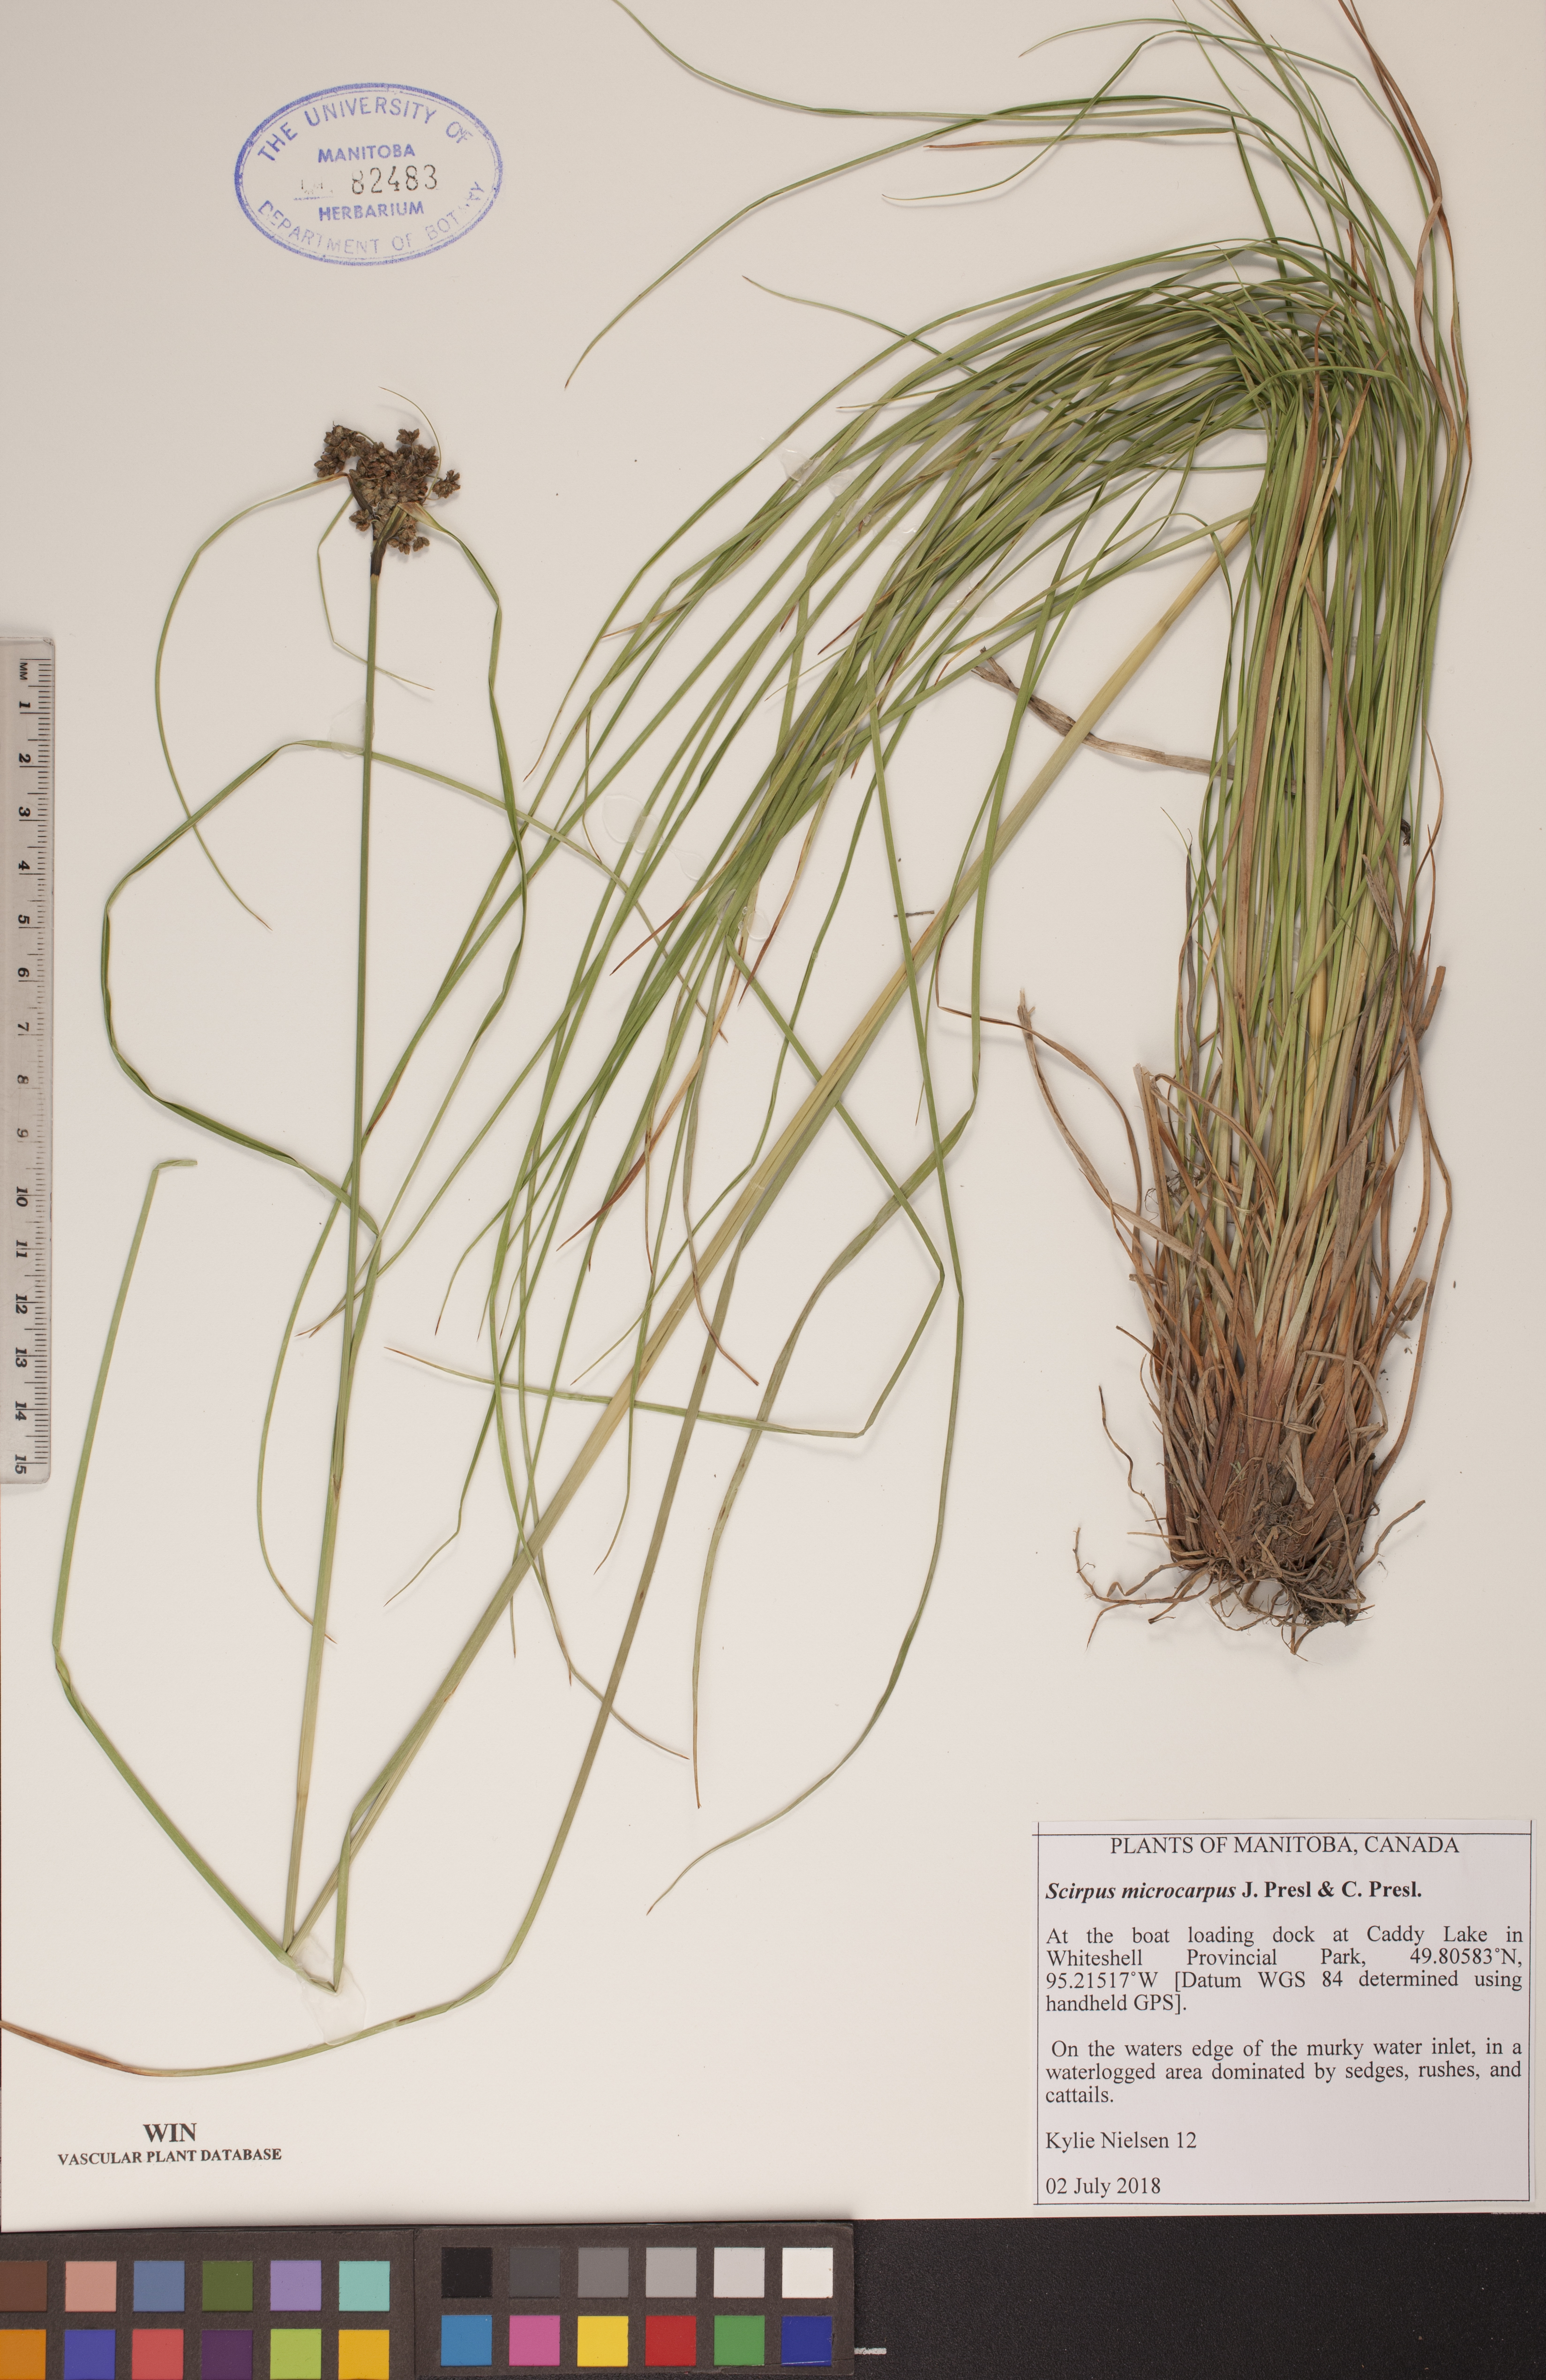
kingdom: Plantae
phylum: Tracheophyta
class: Liliopsida
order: Poales
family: Cyperaceae
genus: Scirpus
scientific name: Scirpus microcarpus
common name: Panicled bulrush
